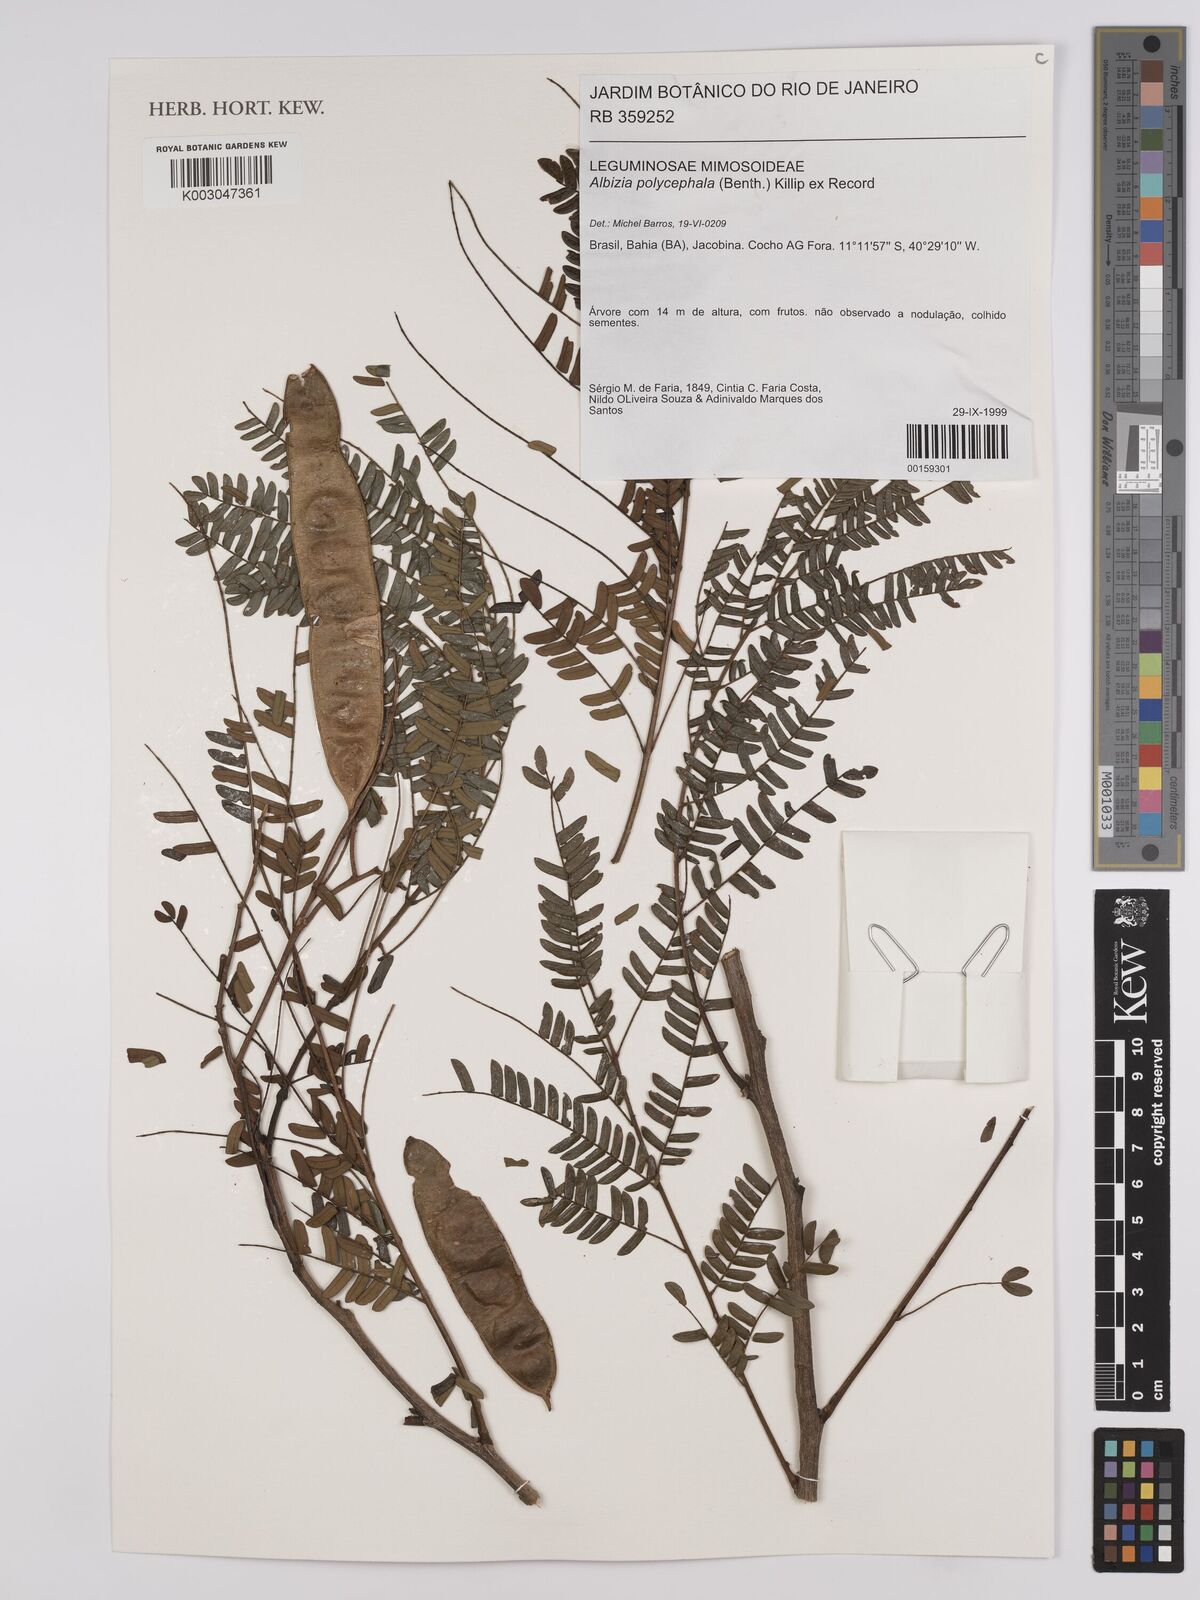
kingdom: Plantae
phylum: Tracheophyta
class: Magnoliopsida
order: Fabales
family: Fabaceae
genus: Albizia
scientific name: Albizia polycephala
